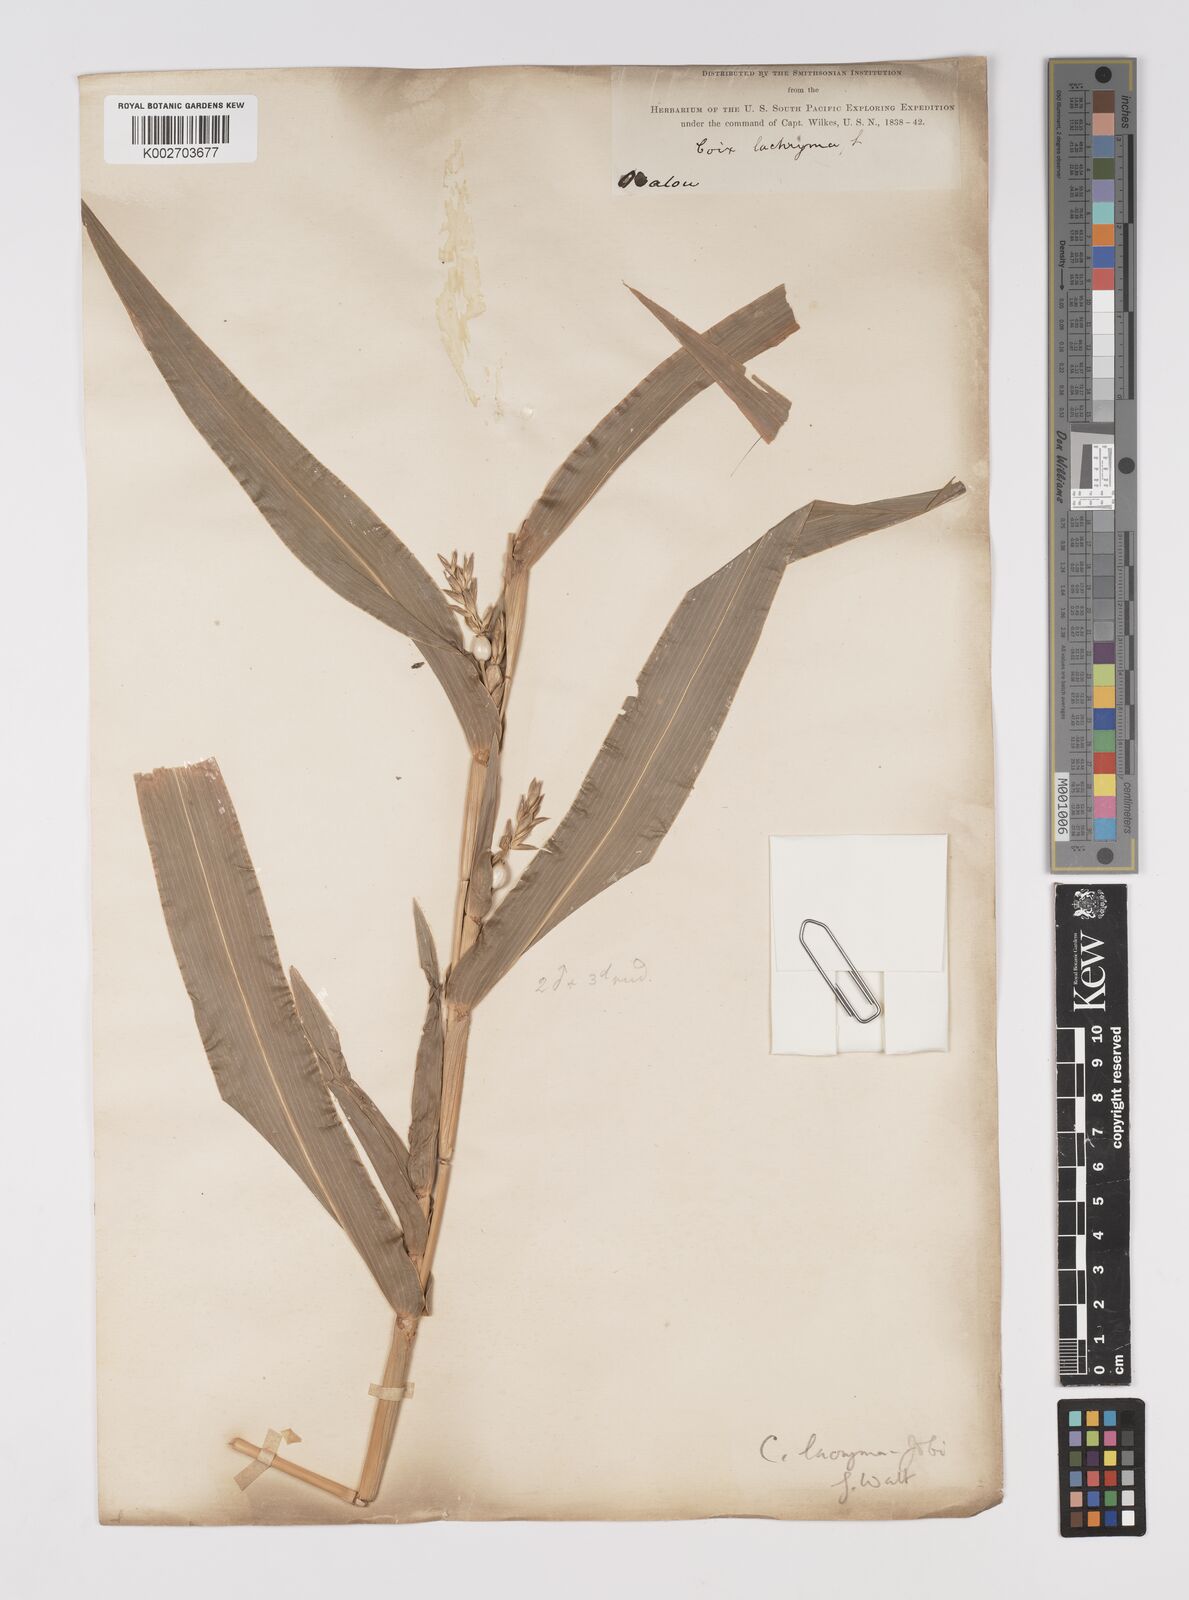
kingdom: Plantae
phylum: Tracheophyta
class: Liliopsida
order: Poales
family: Poaceae
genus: Coix
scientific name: Coix lacryma-jobi
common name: Job's tears
